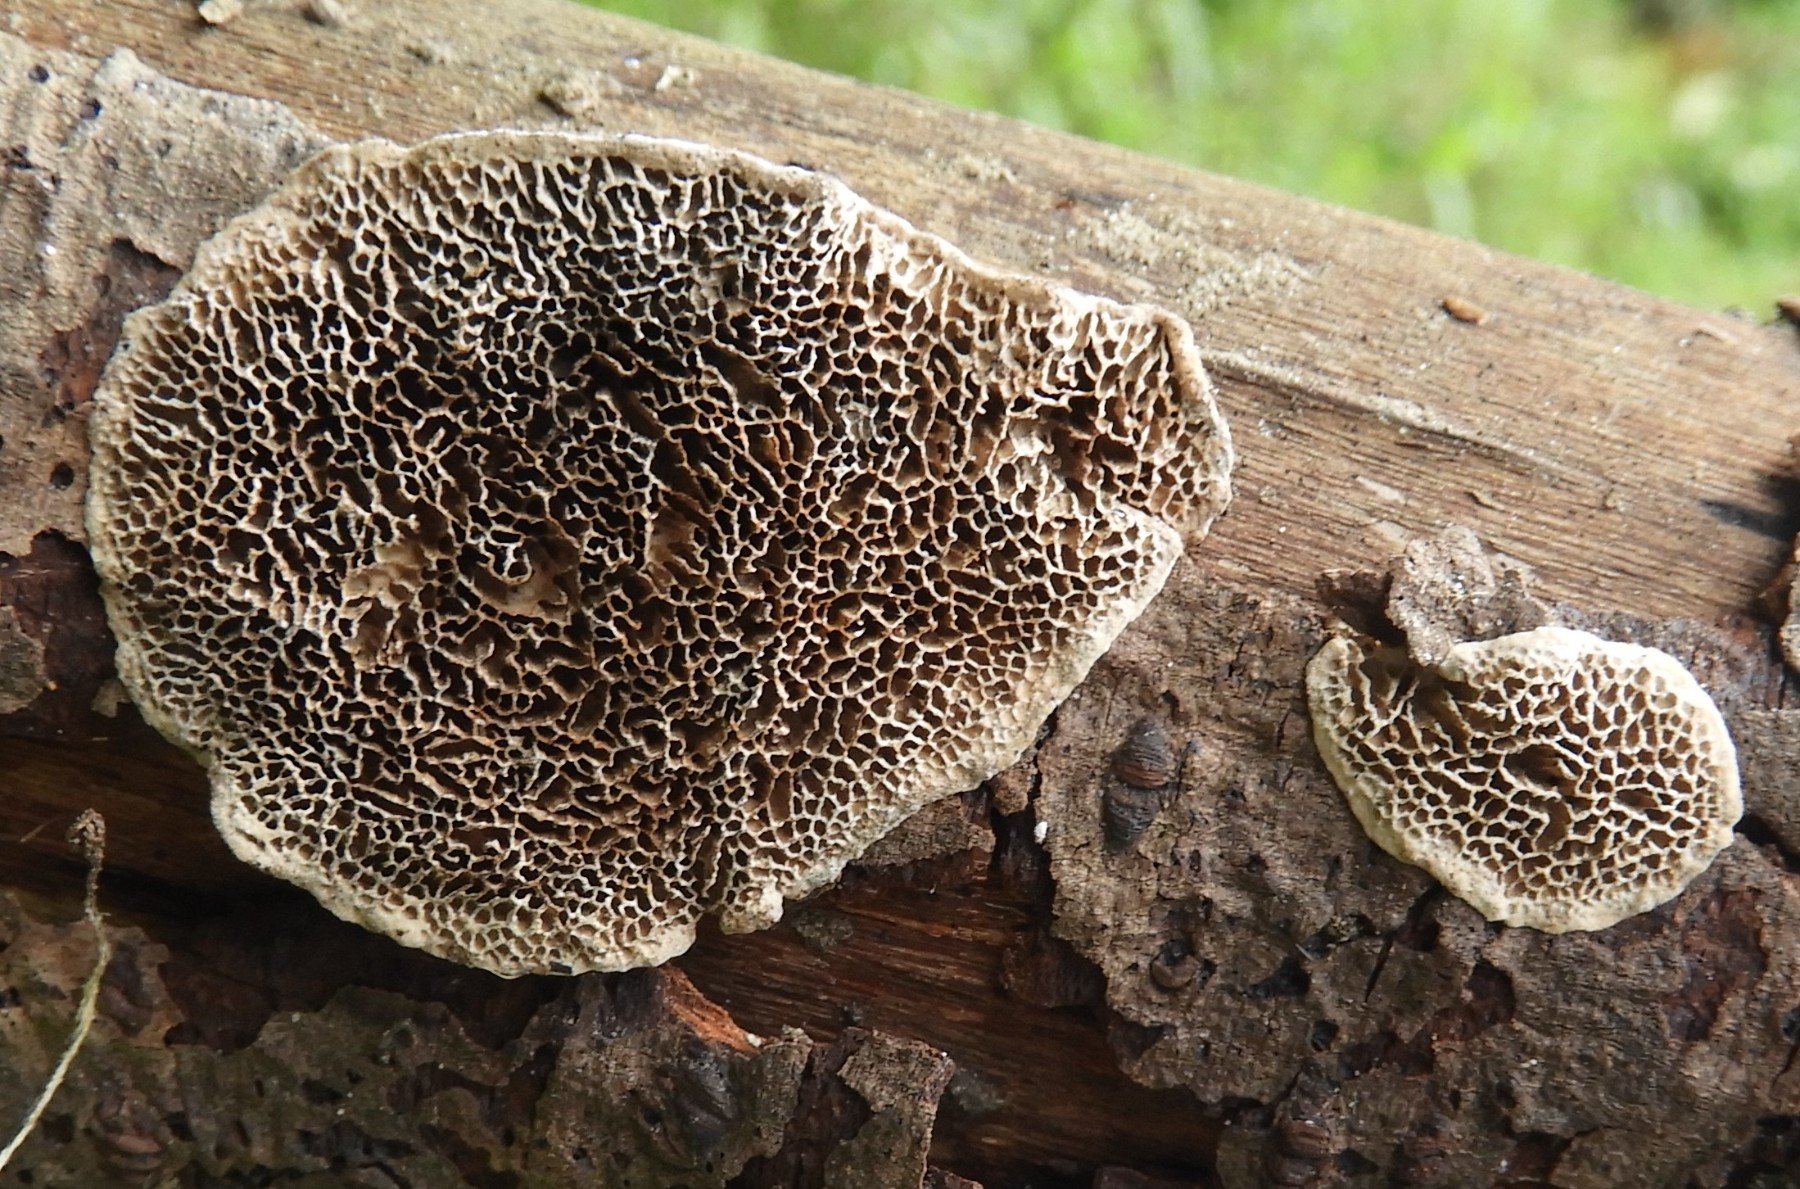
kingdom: Fungi
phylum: Basidiomycota
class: Agaricomycetes
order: Polyporales
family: Polyporaceae
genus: Podofomes
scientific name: Podofomes mollis
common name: blød begporesvamp
